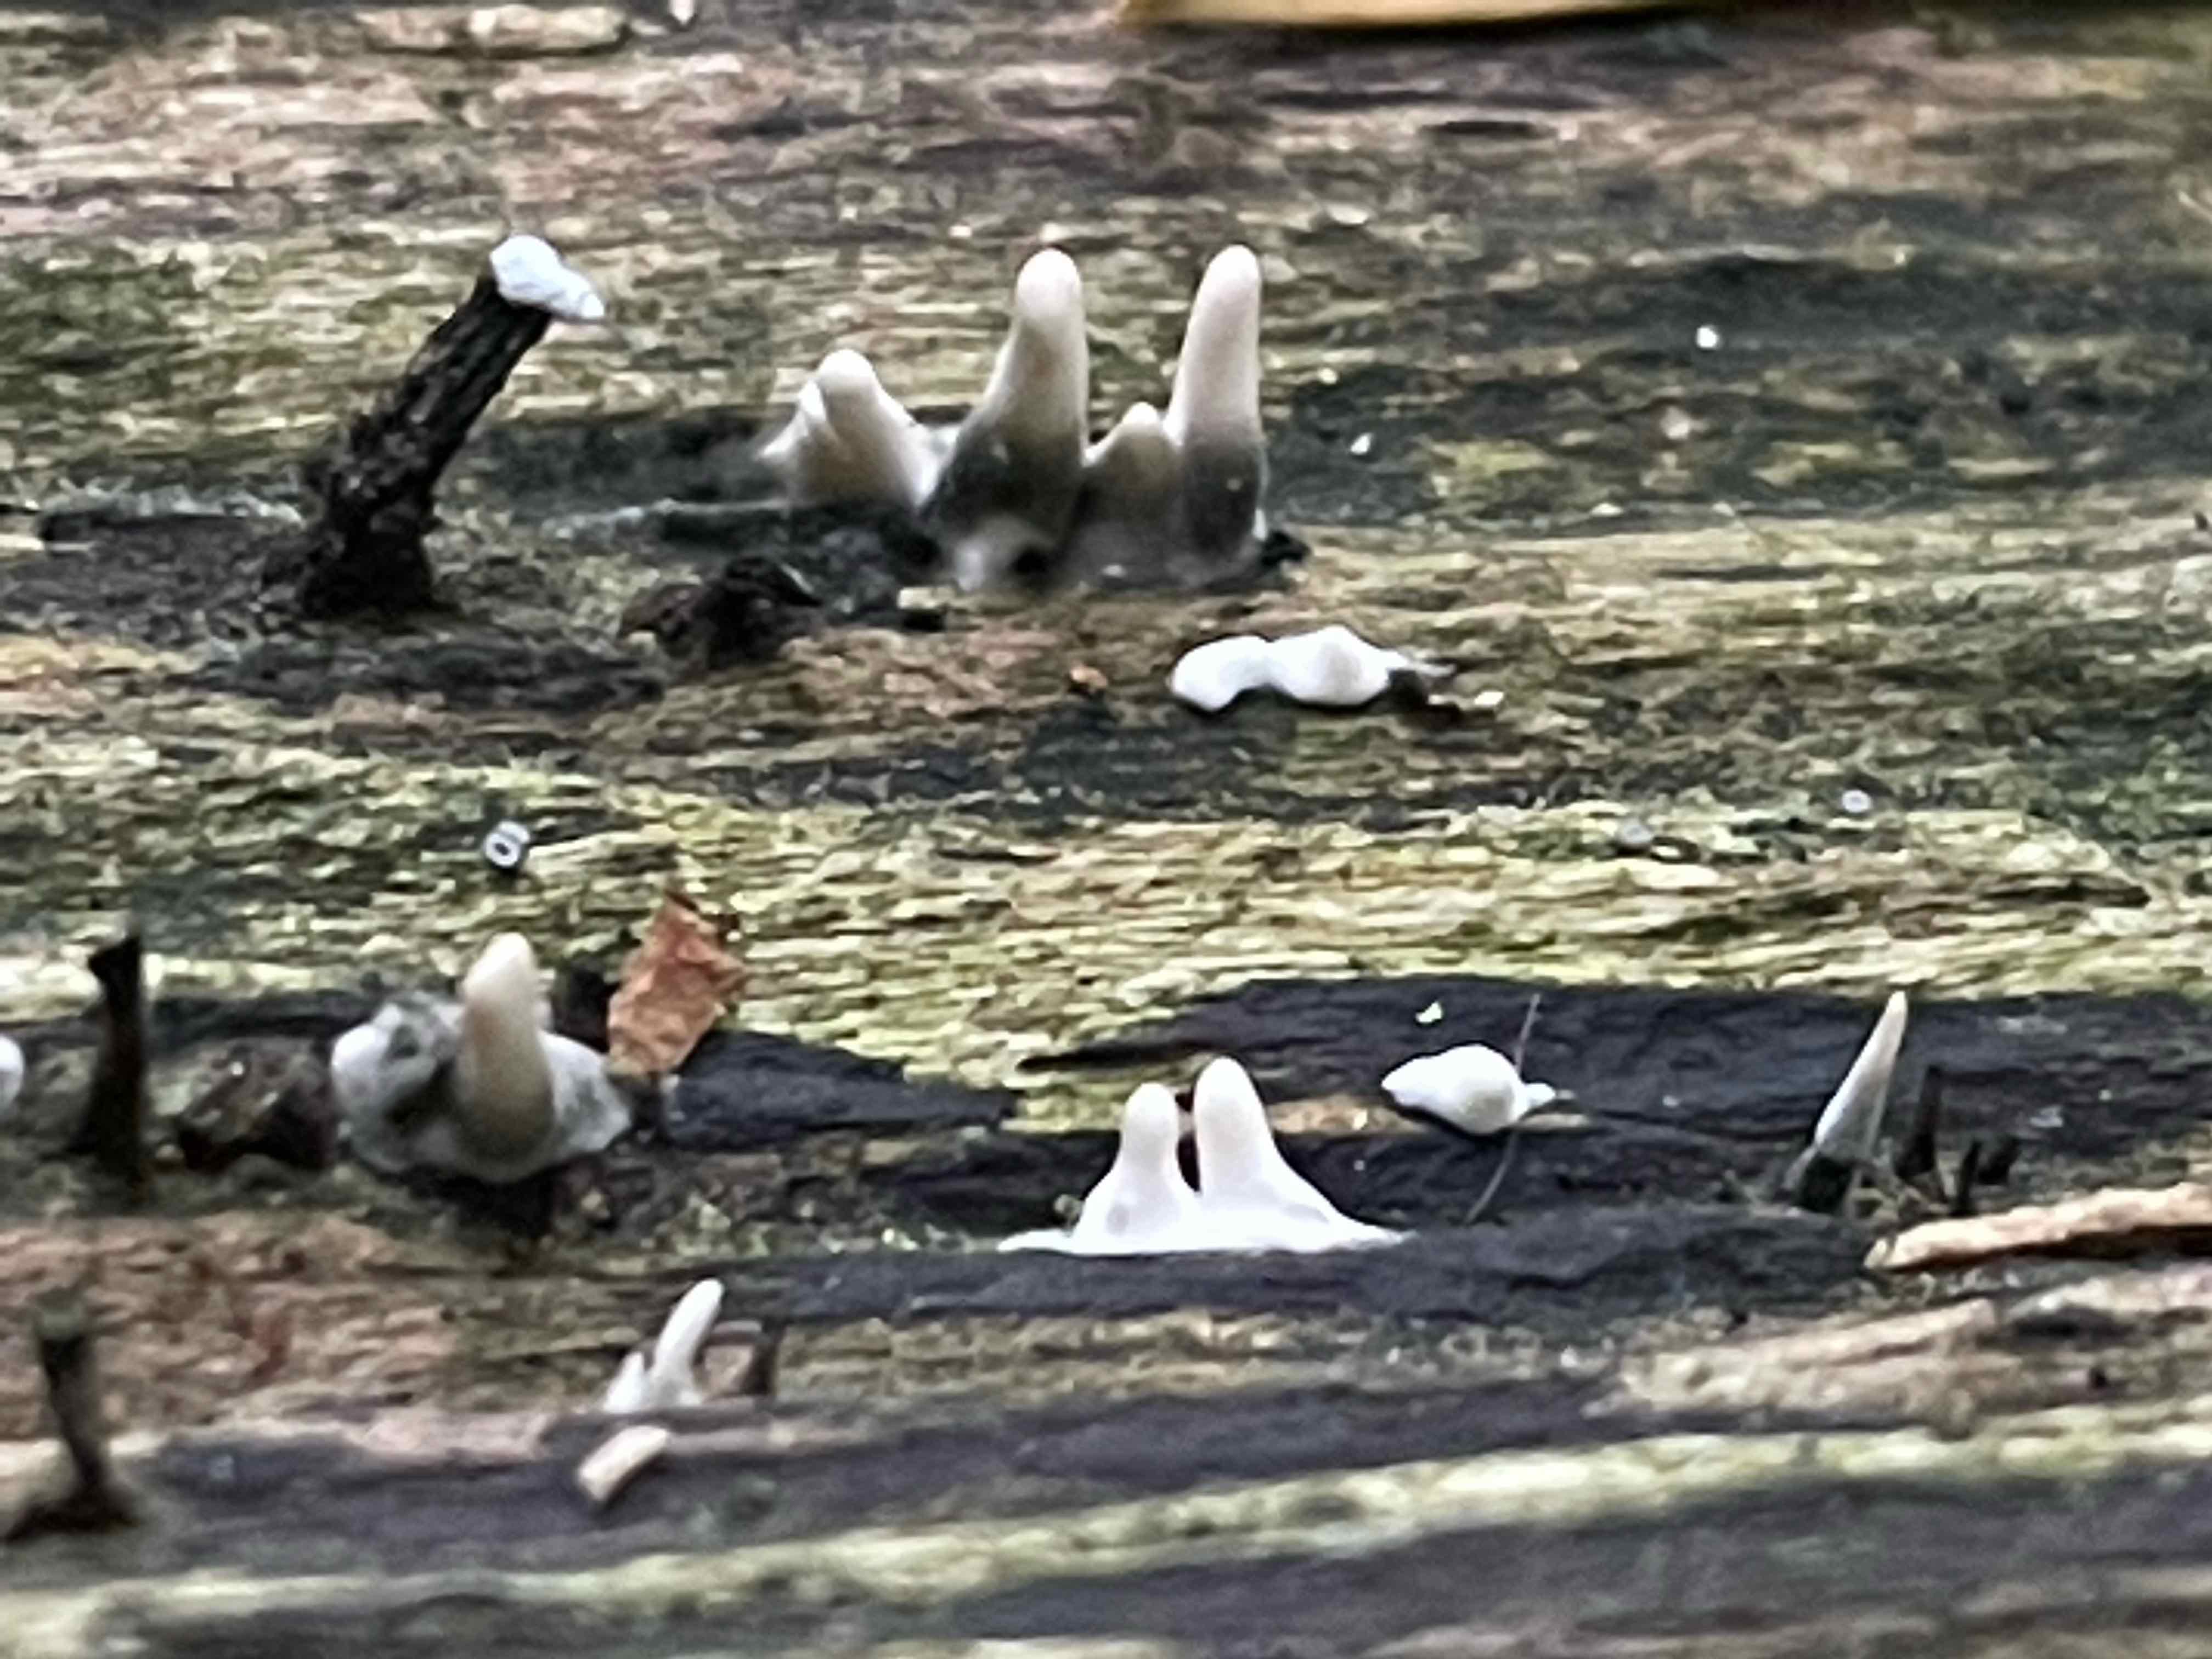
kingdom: Fungi
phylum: Ascomycota
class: Sordariomycetes
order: Xylariales
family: Xylariaceae
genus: Xylaria
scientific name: Xylaria hypoxylon
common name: grenet stødsvamp
